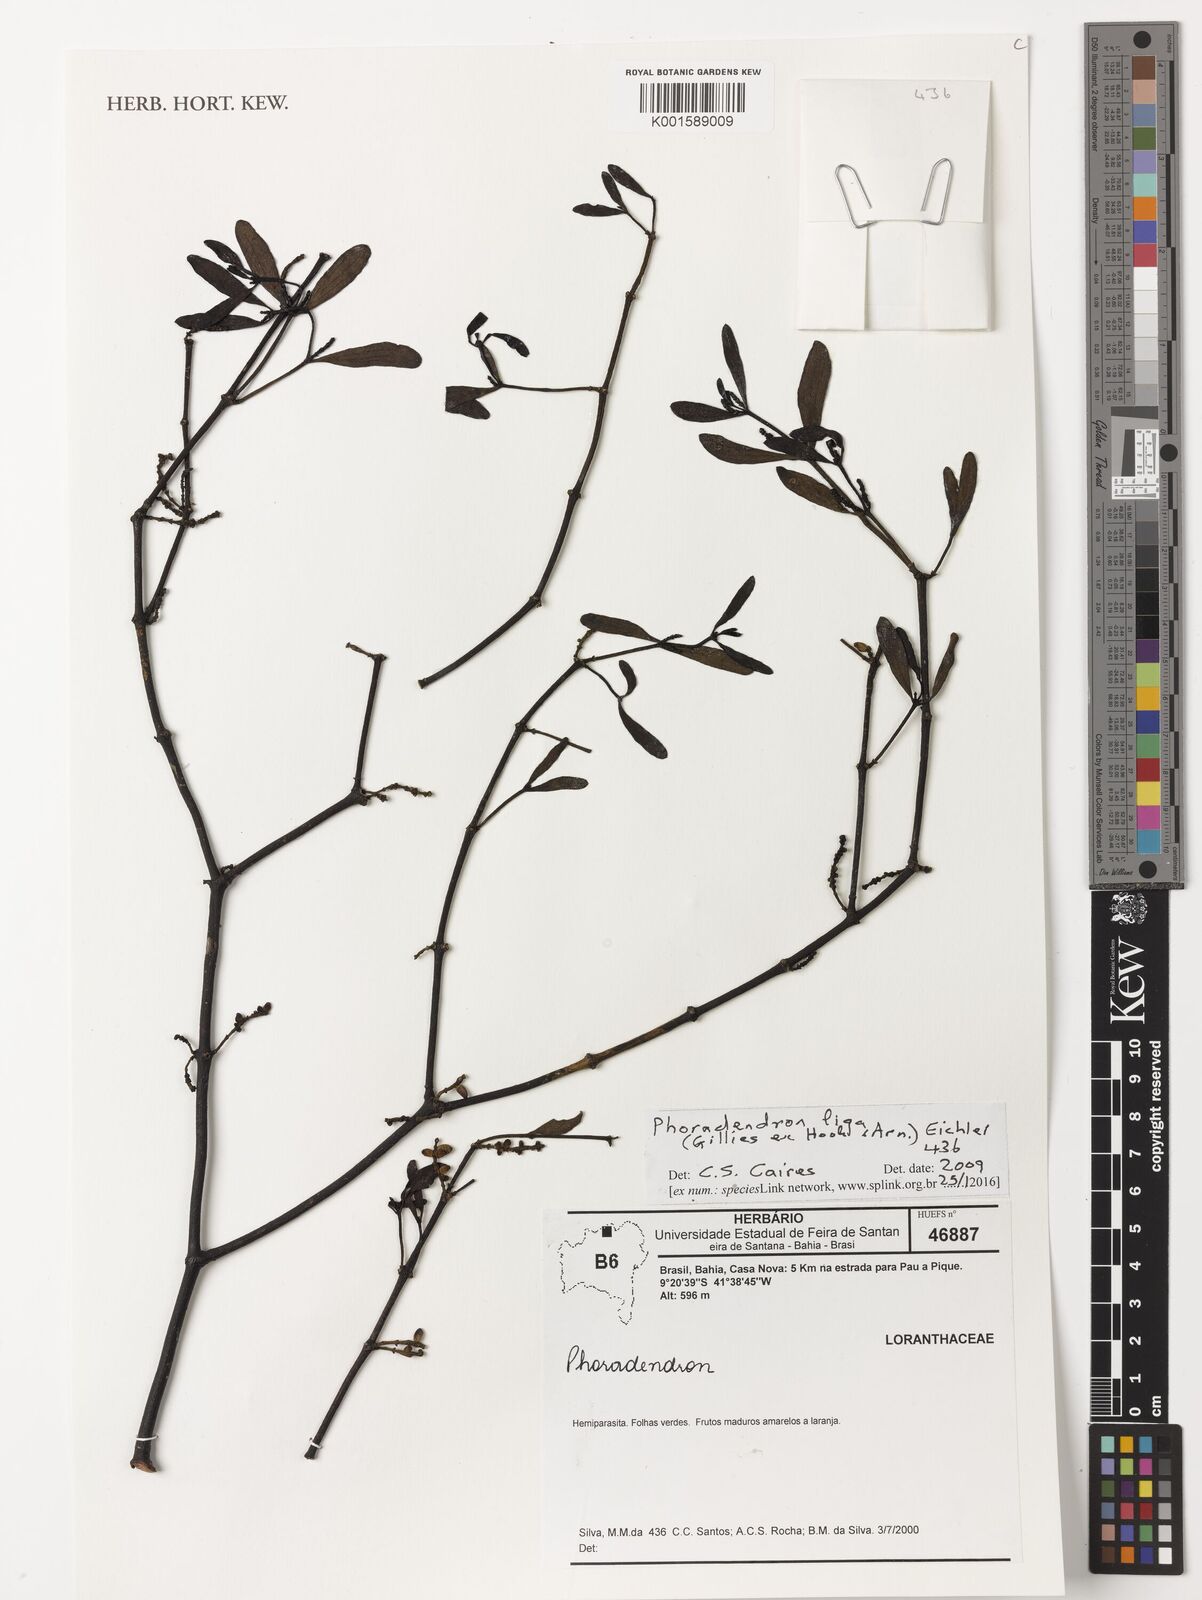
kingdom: Plantae
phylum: Tracheophyta
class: Magnoliopsida
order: Santalales
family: Viscaceae
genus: Phoradendron
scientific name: Phoradendron liga
